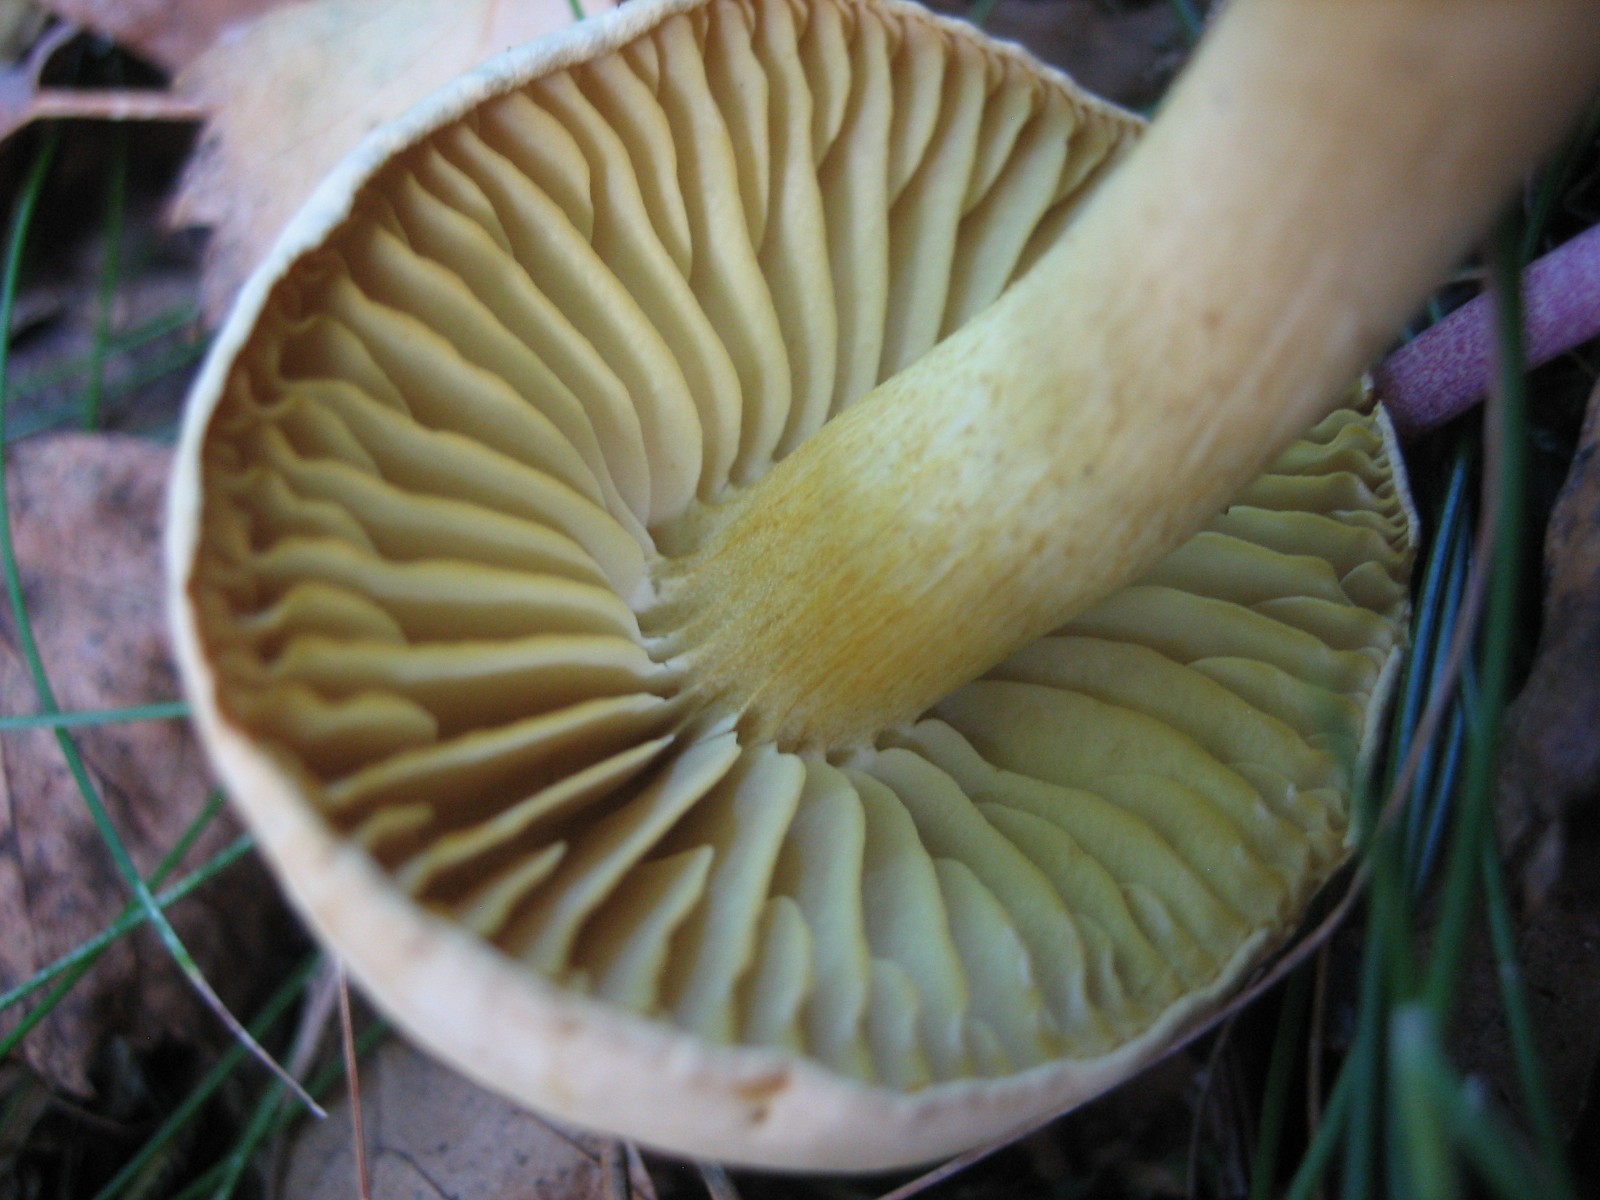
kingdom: Fungi
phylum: Basidiomycota
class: Agaricomycetes
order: Agaricales
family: Tricholomataceae
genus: Tricholoma
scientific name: Tricholoma sulphureum
